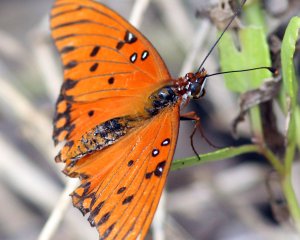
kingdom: Animalia
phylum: Arthropoda
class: Insecta
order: Lepidoptera
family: Nymphalidae
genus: Dione
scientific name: Dione vanillae
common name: Gulf Fritillary
